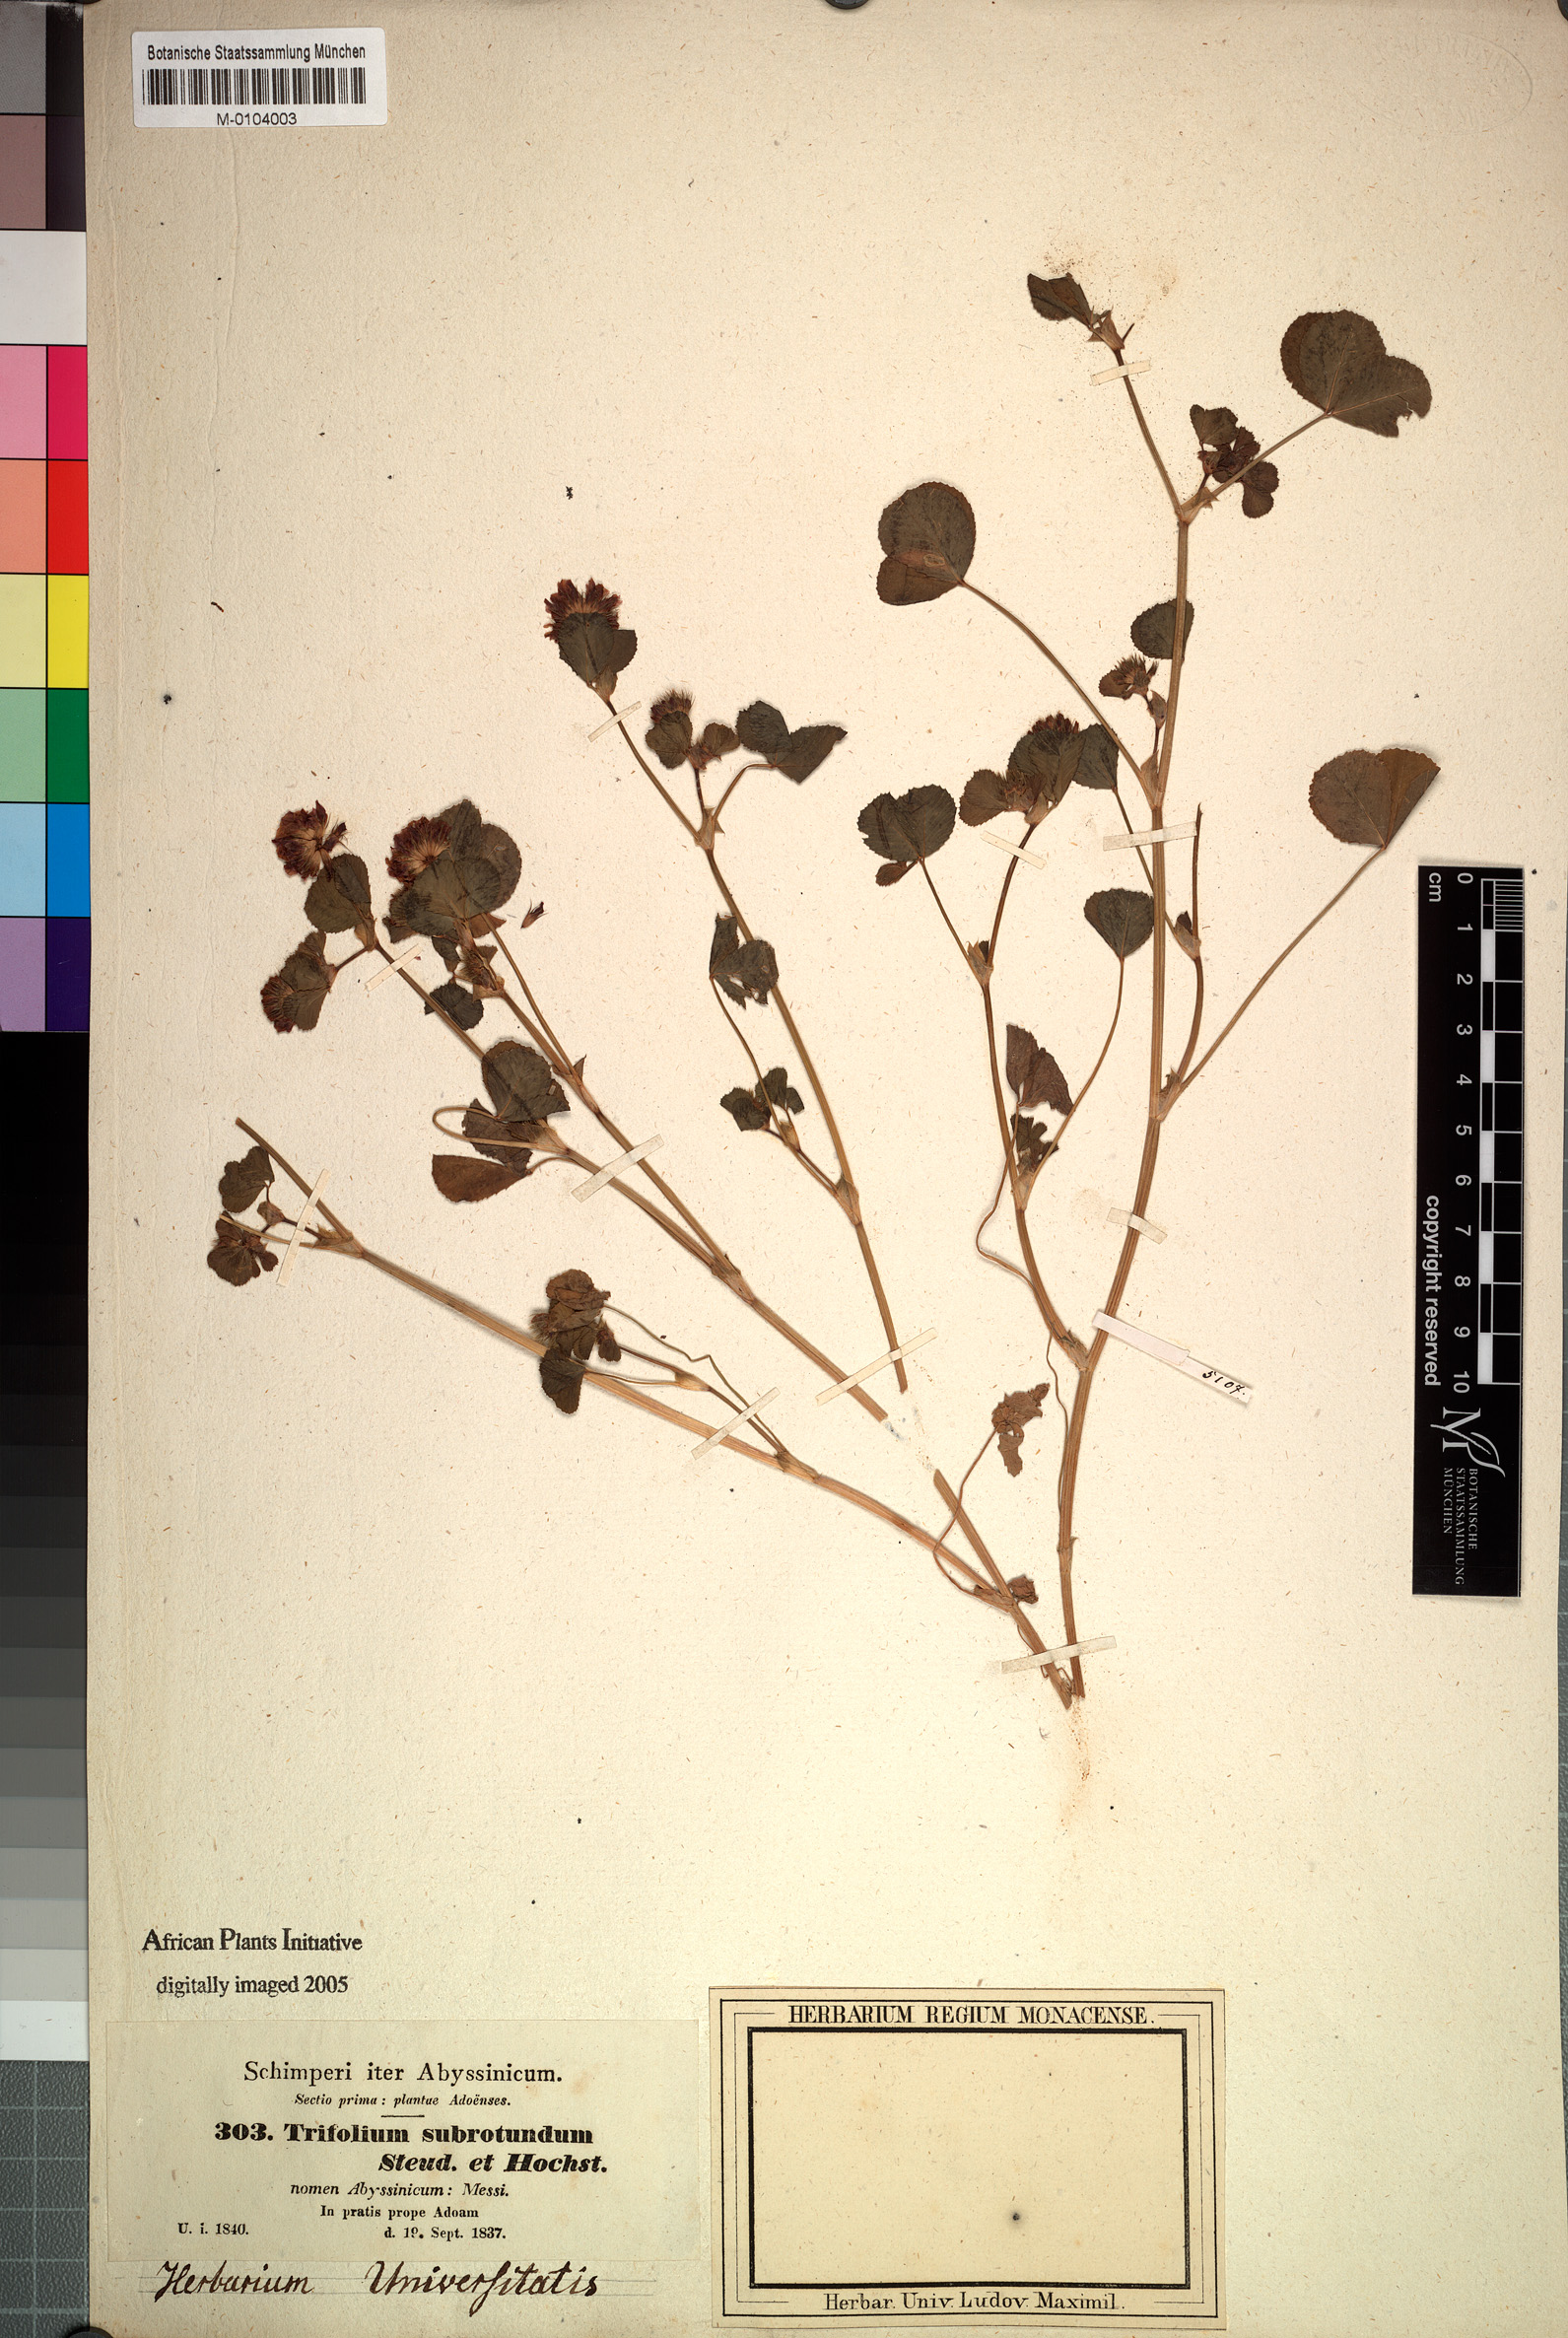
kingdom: Plantae
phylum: Tracheophyta
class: Magnoliopsida
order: Fabales
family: Fabaceae
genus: Trifolium
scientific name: Trifolium rueppellianum
